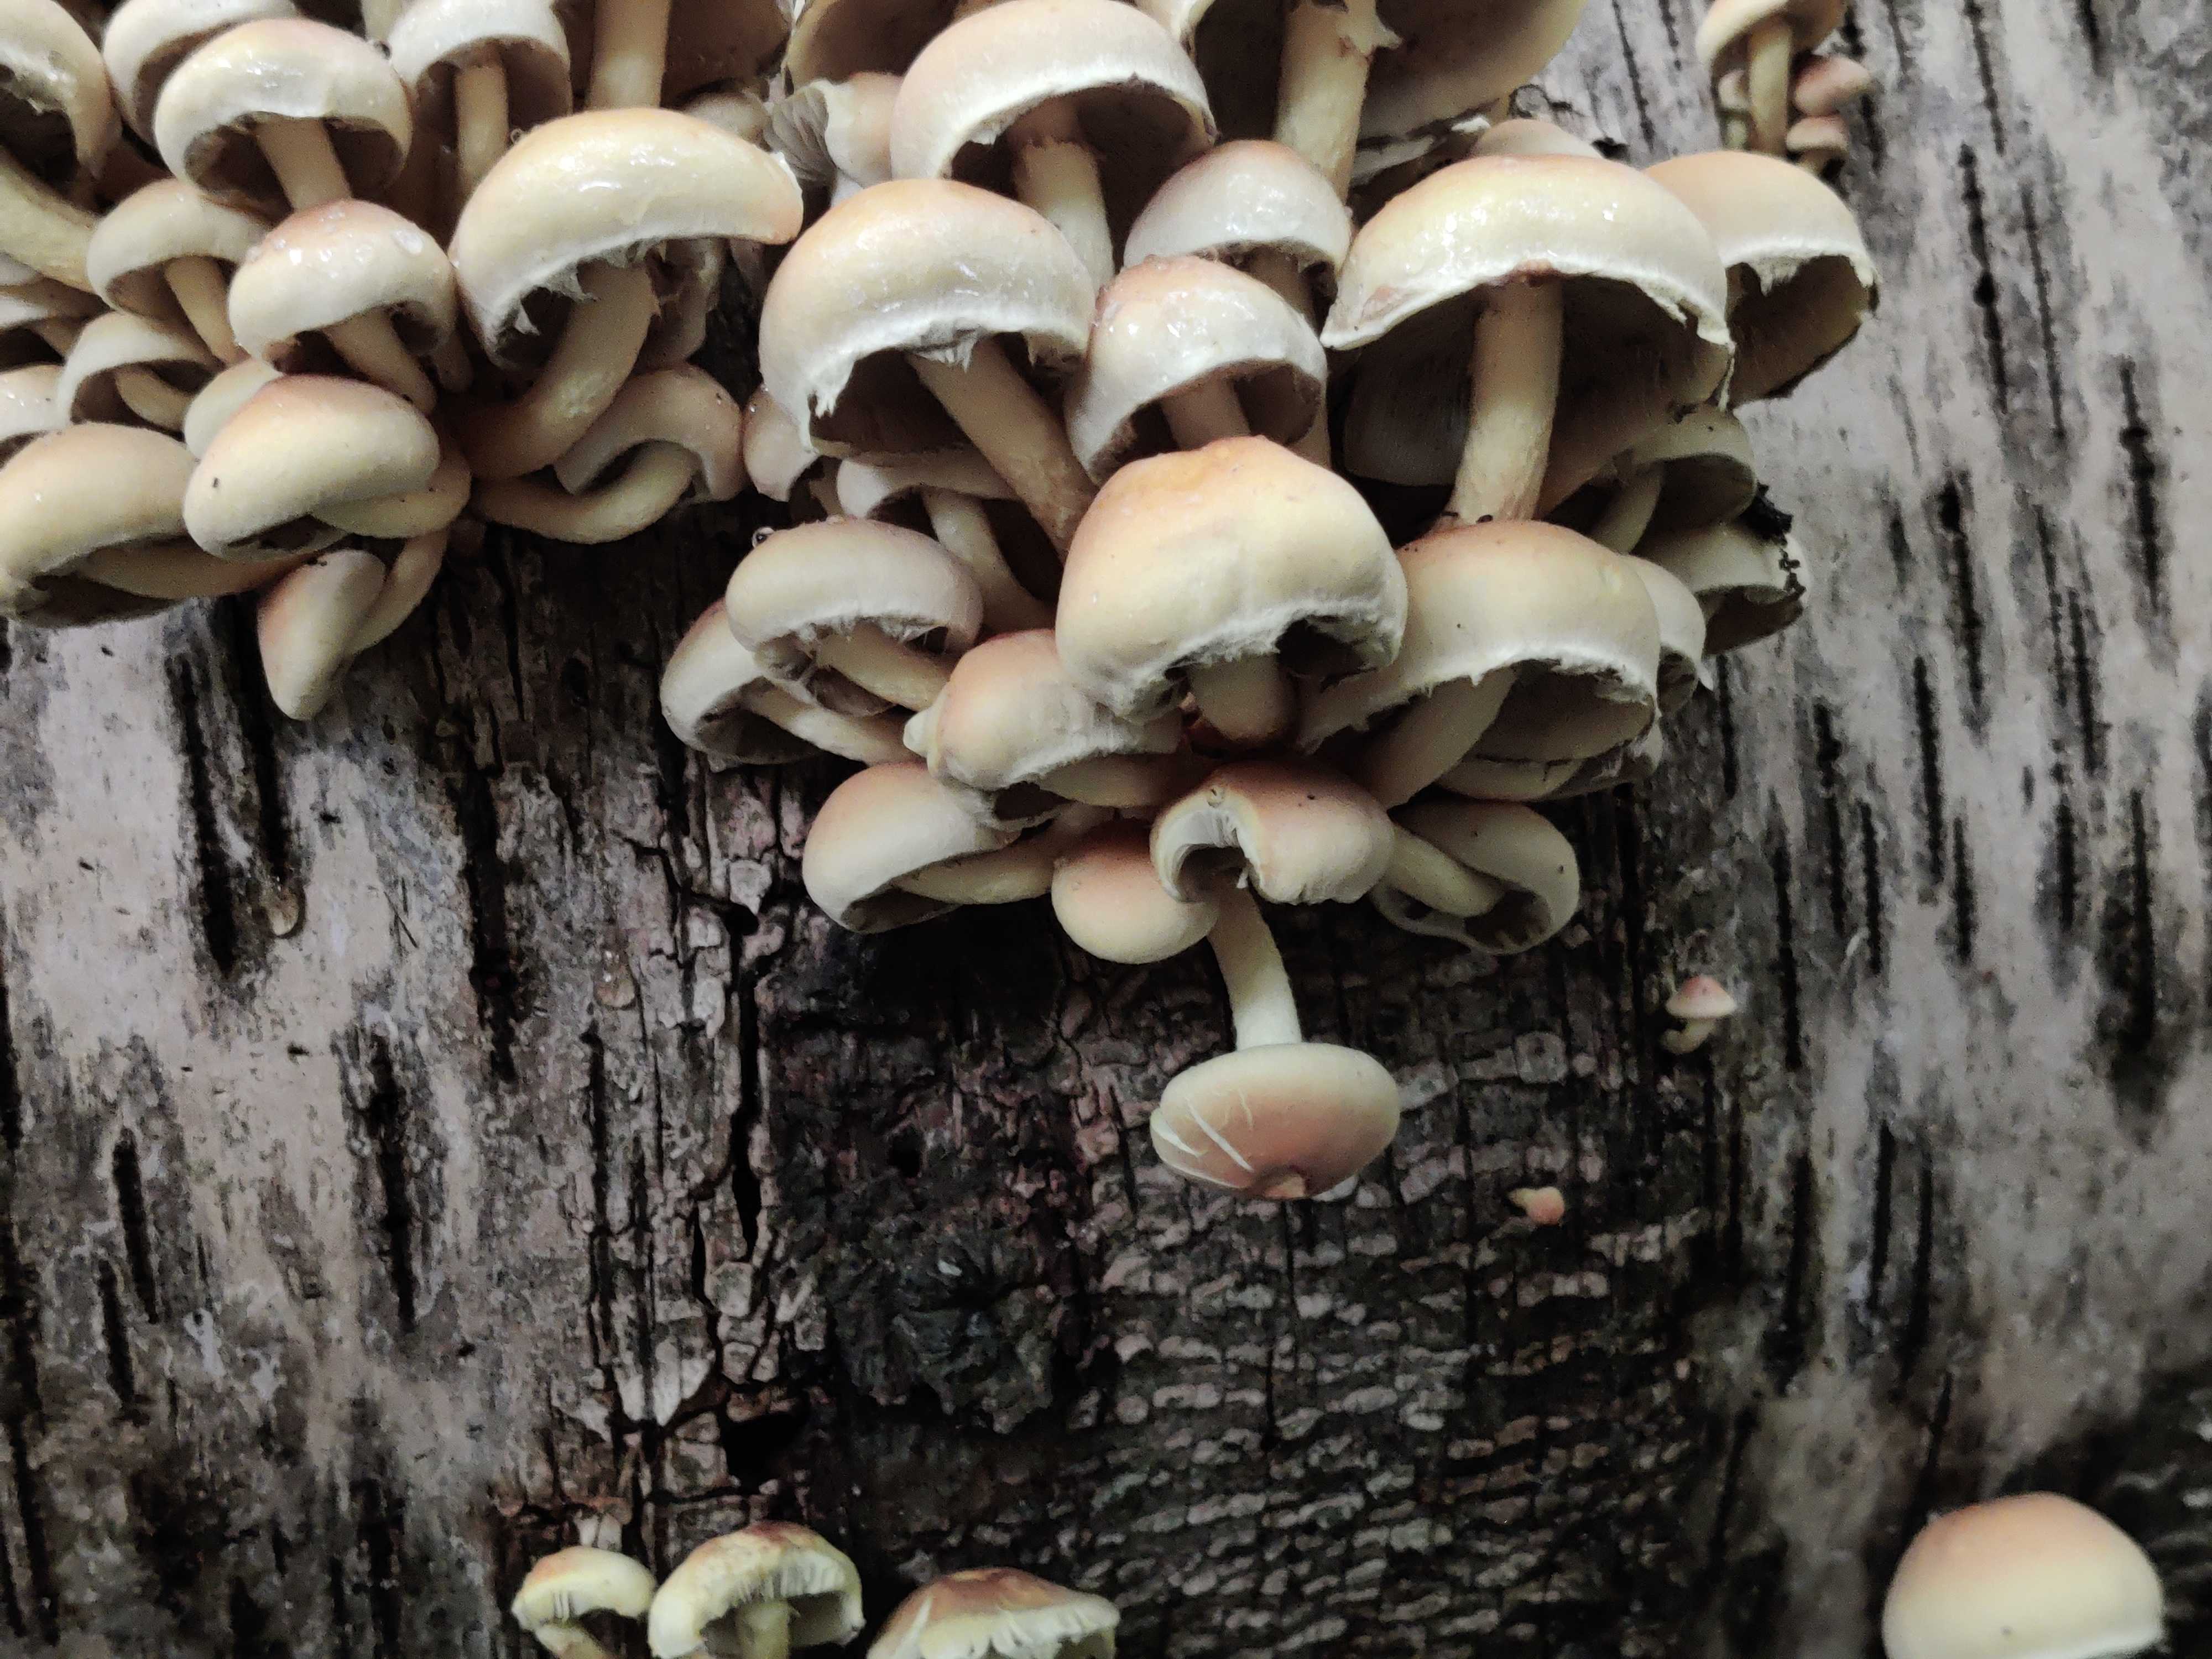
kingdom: Fungi
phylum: Basidiomycota
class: Agaricomycetes
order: Agaricales
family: Strophariaceae
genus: Hypholoma
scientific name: Hypholoma fasciculare
